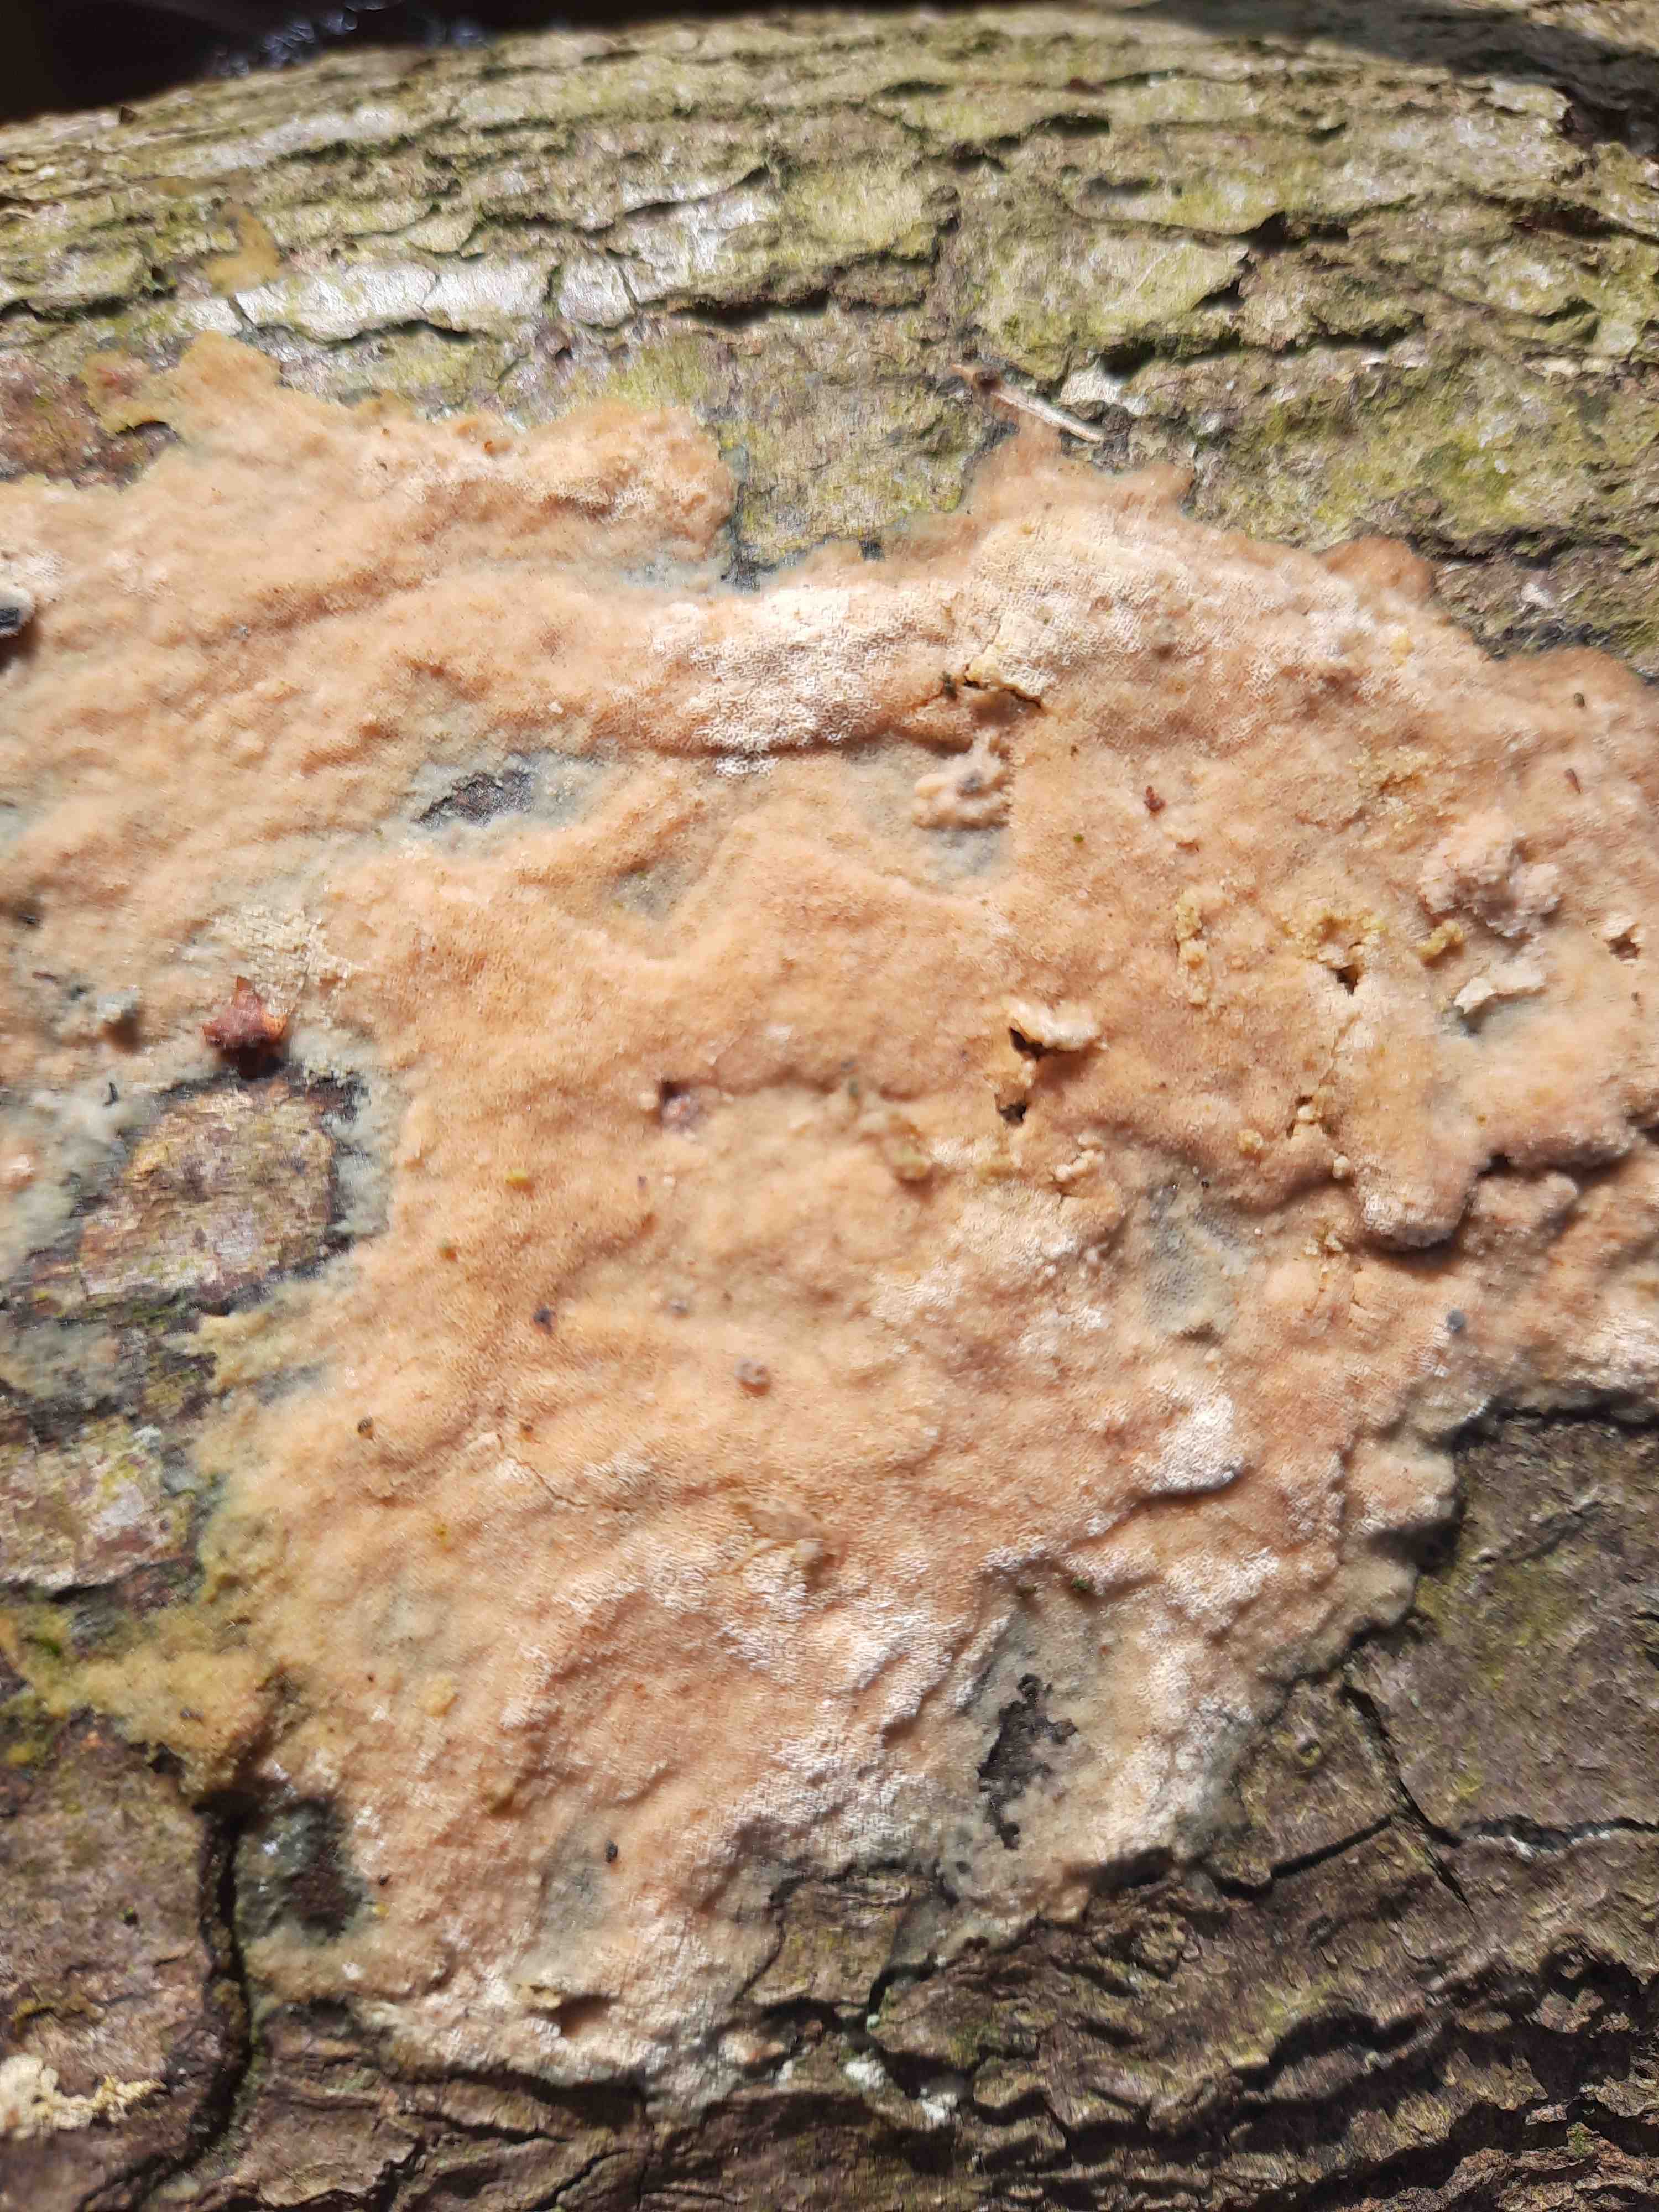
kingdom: Fungi
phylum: Basidiomycota
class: Agaricomycetes
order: Polyporales
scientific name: Polyporales
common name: poresvampordenen
